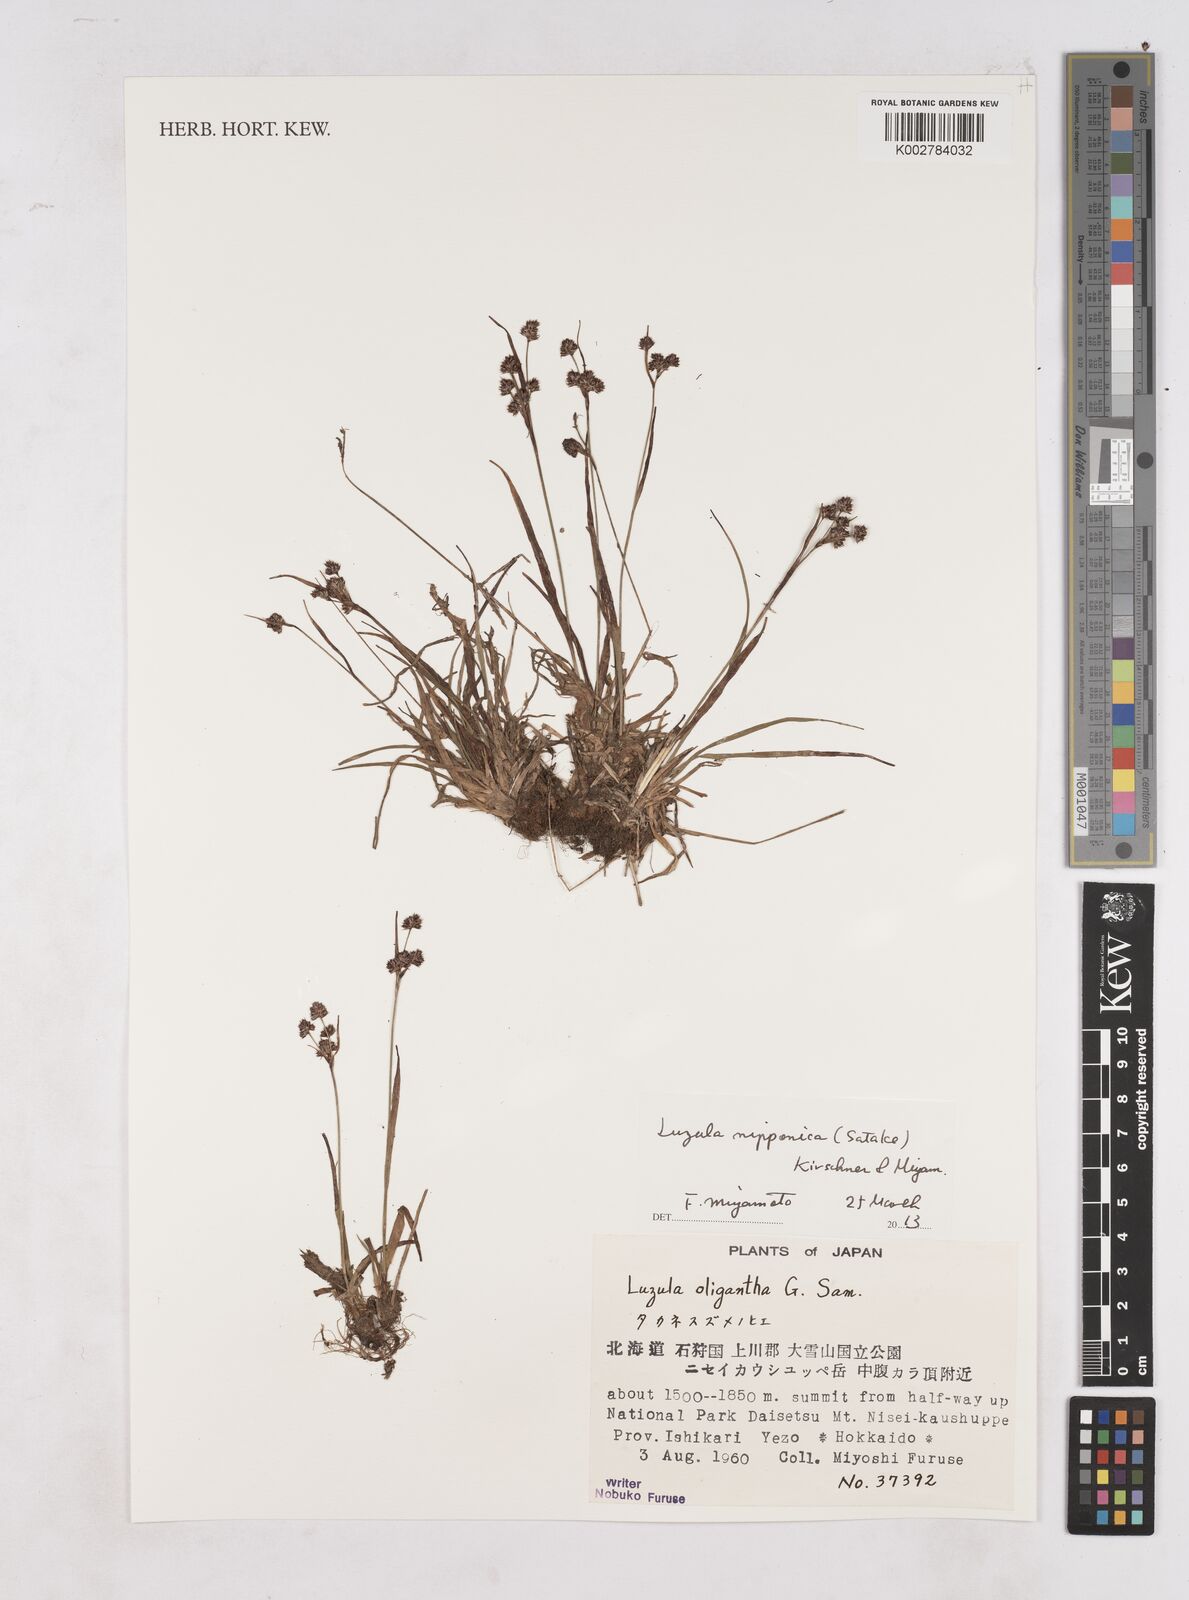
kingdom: Plantae
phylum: Tracheophyta
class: Liliopsida
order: Poales
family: Juncaceae
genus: Luzula
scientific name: Luzula oligantha
